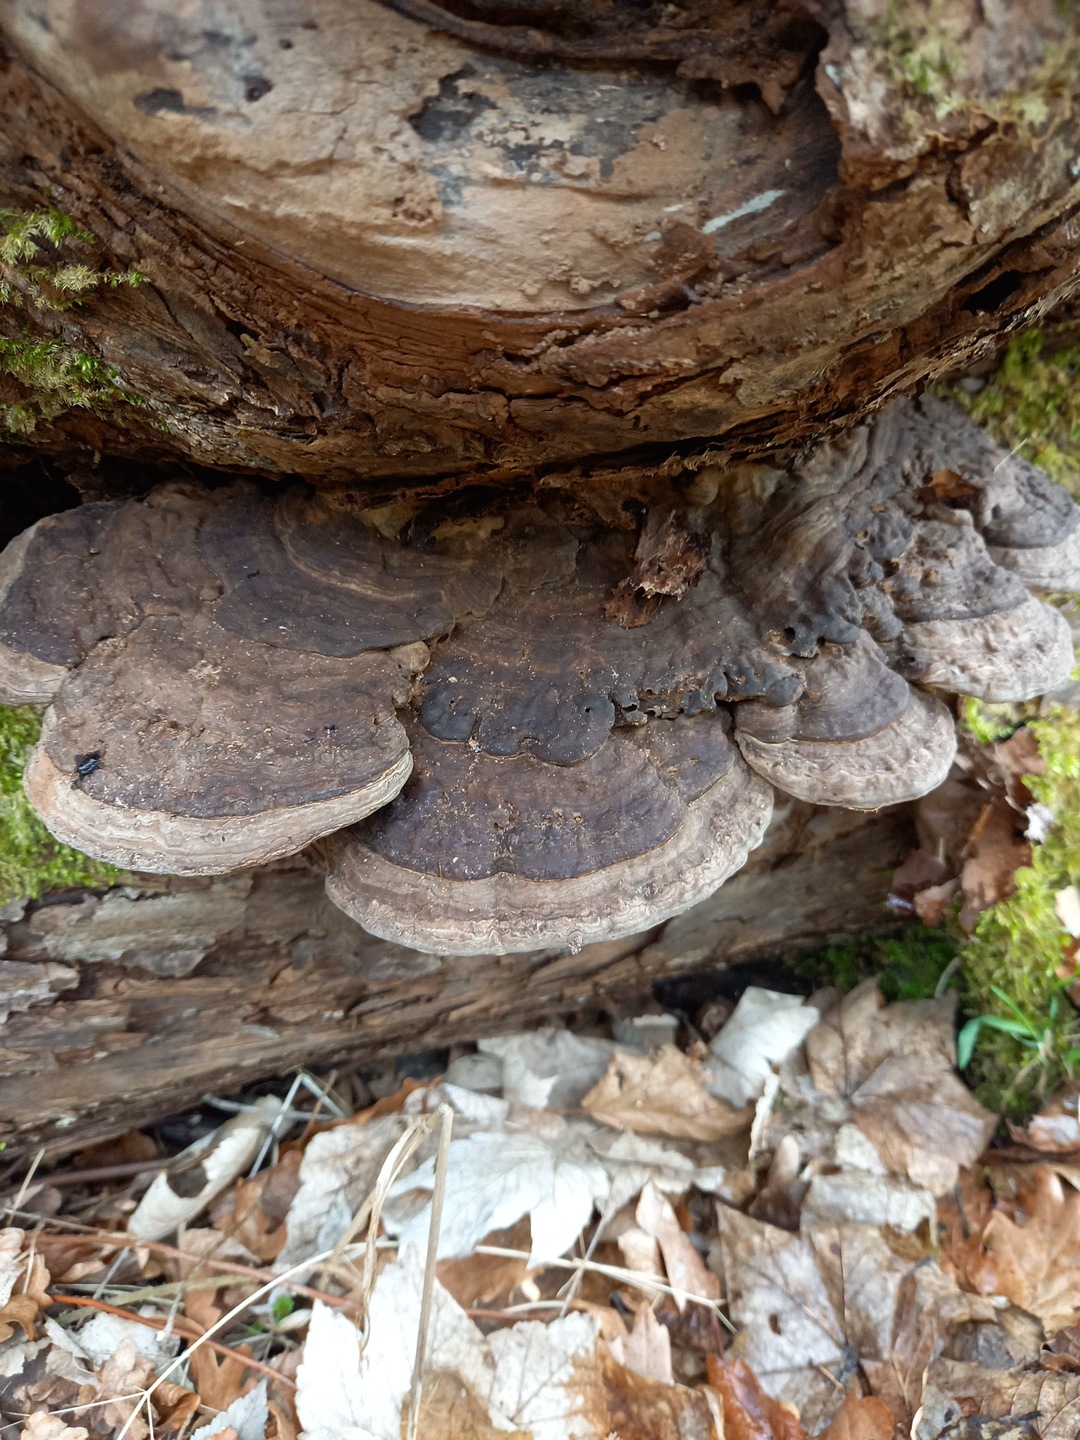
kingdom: Fungi
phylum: Basidiomycota
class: Agaricomycetes
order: Polyporales
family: Polyporaceae
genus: Ganoderma
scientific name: Ganoderma applanatum
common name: flad lakporesvamp
